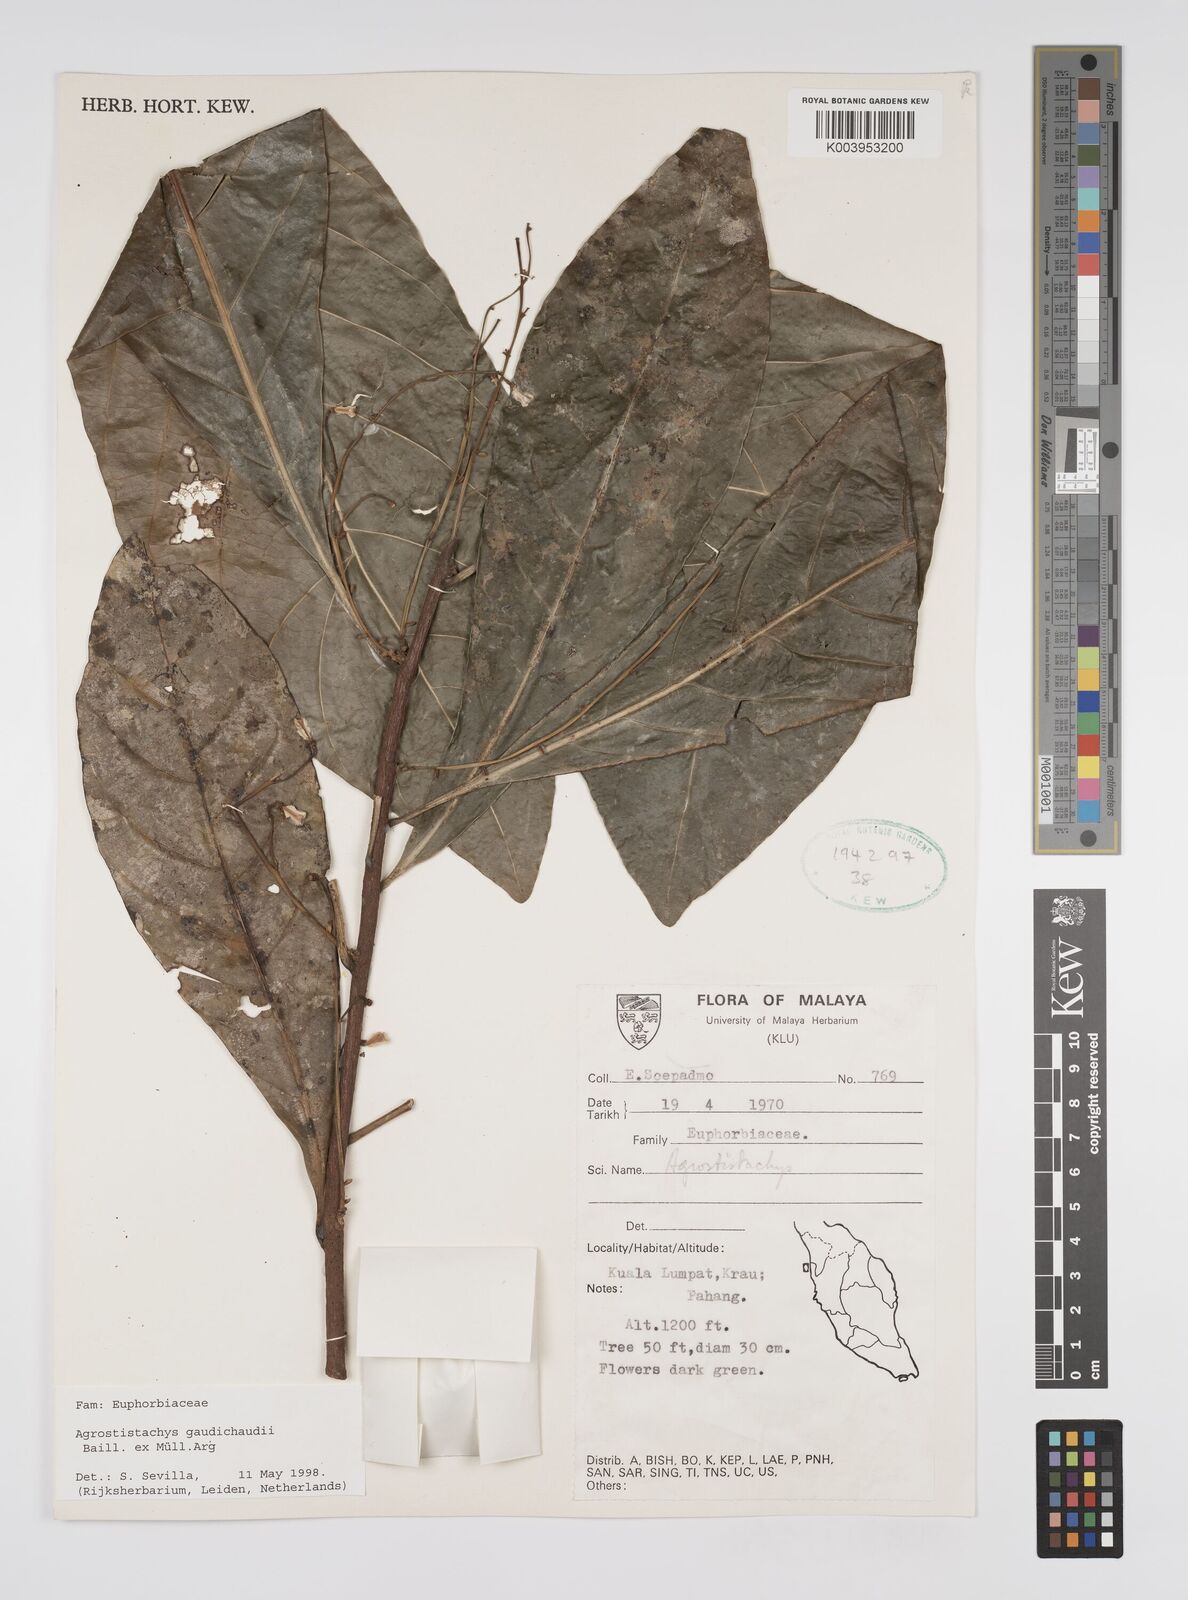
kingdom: Plantae
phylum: Tracheophyta
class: Magnoliopsida
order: Malpighiales
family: Euphorbiaceae
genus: Agrostistachys
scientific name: Agrostistachys gaudichaudii
